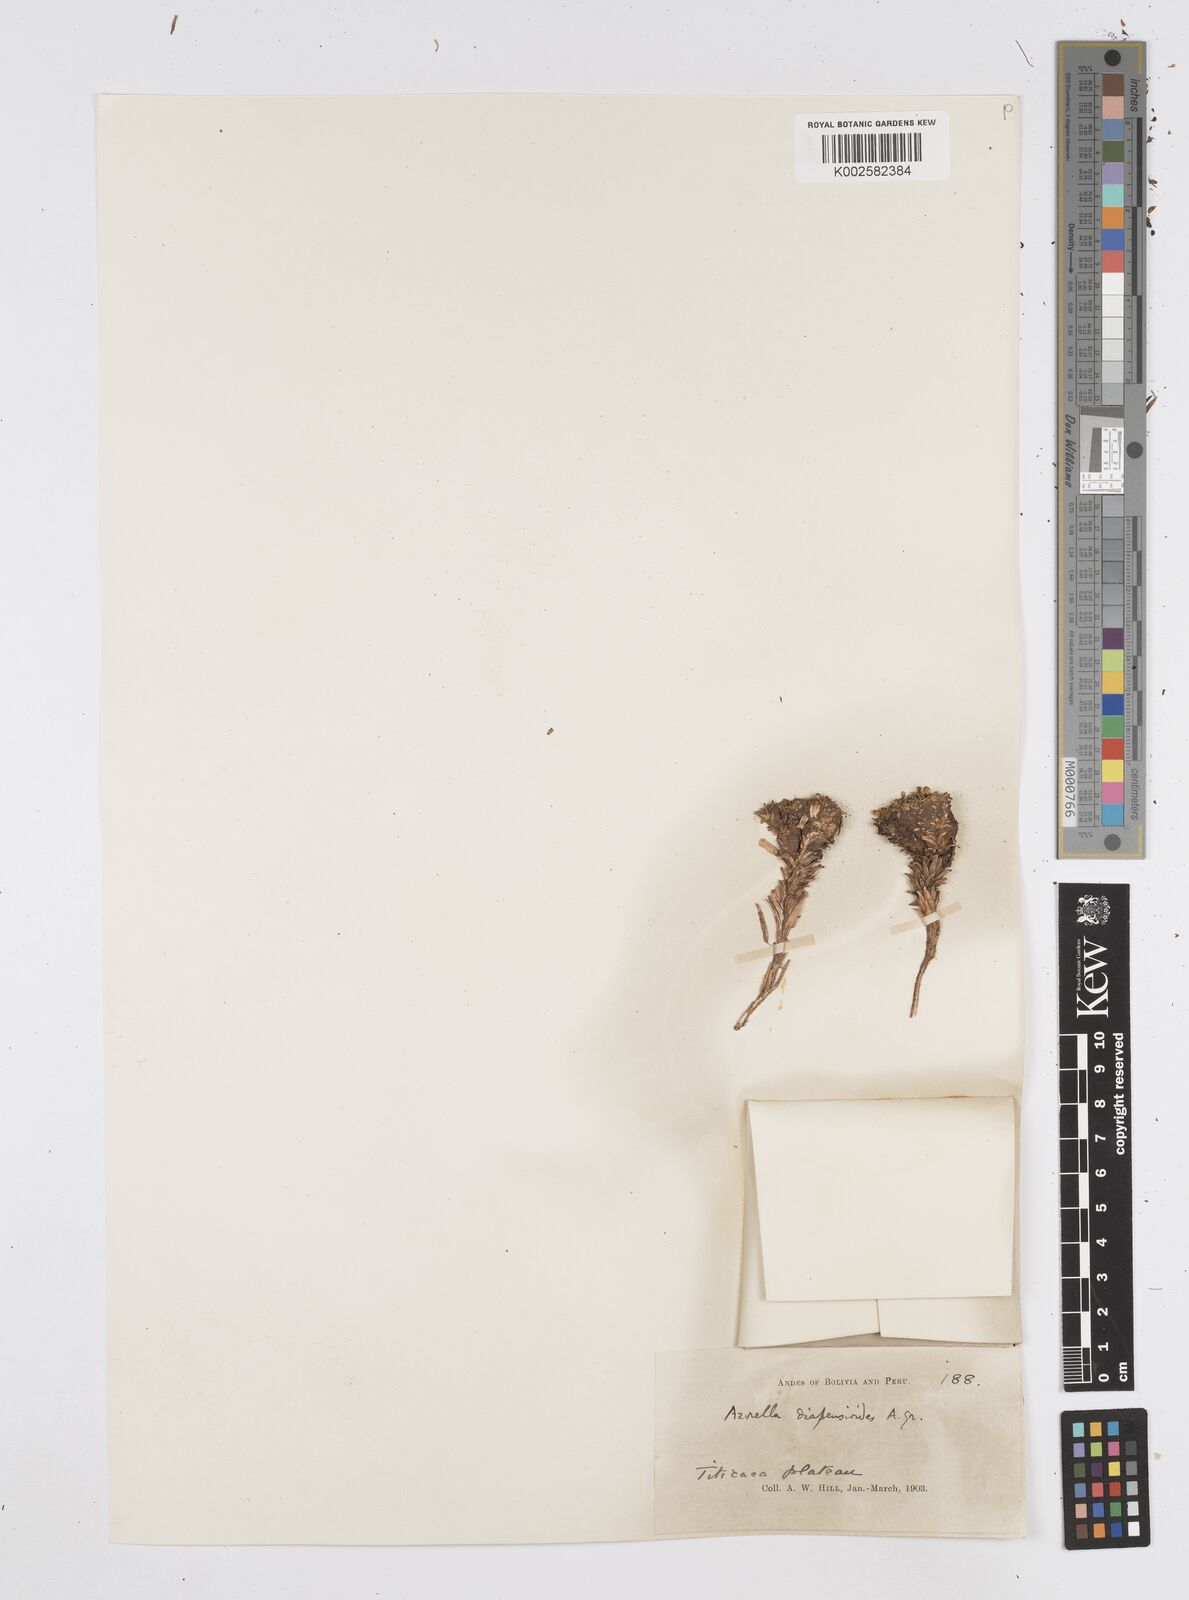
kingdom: Plantae
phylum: Tracheophyta
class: Magnoliopsida
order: Apiales
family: Apiaceae
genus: Azorella
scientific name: Azorella diapensioides
